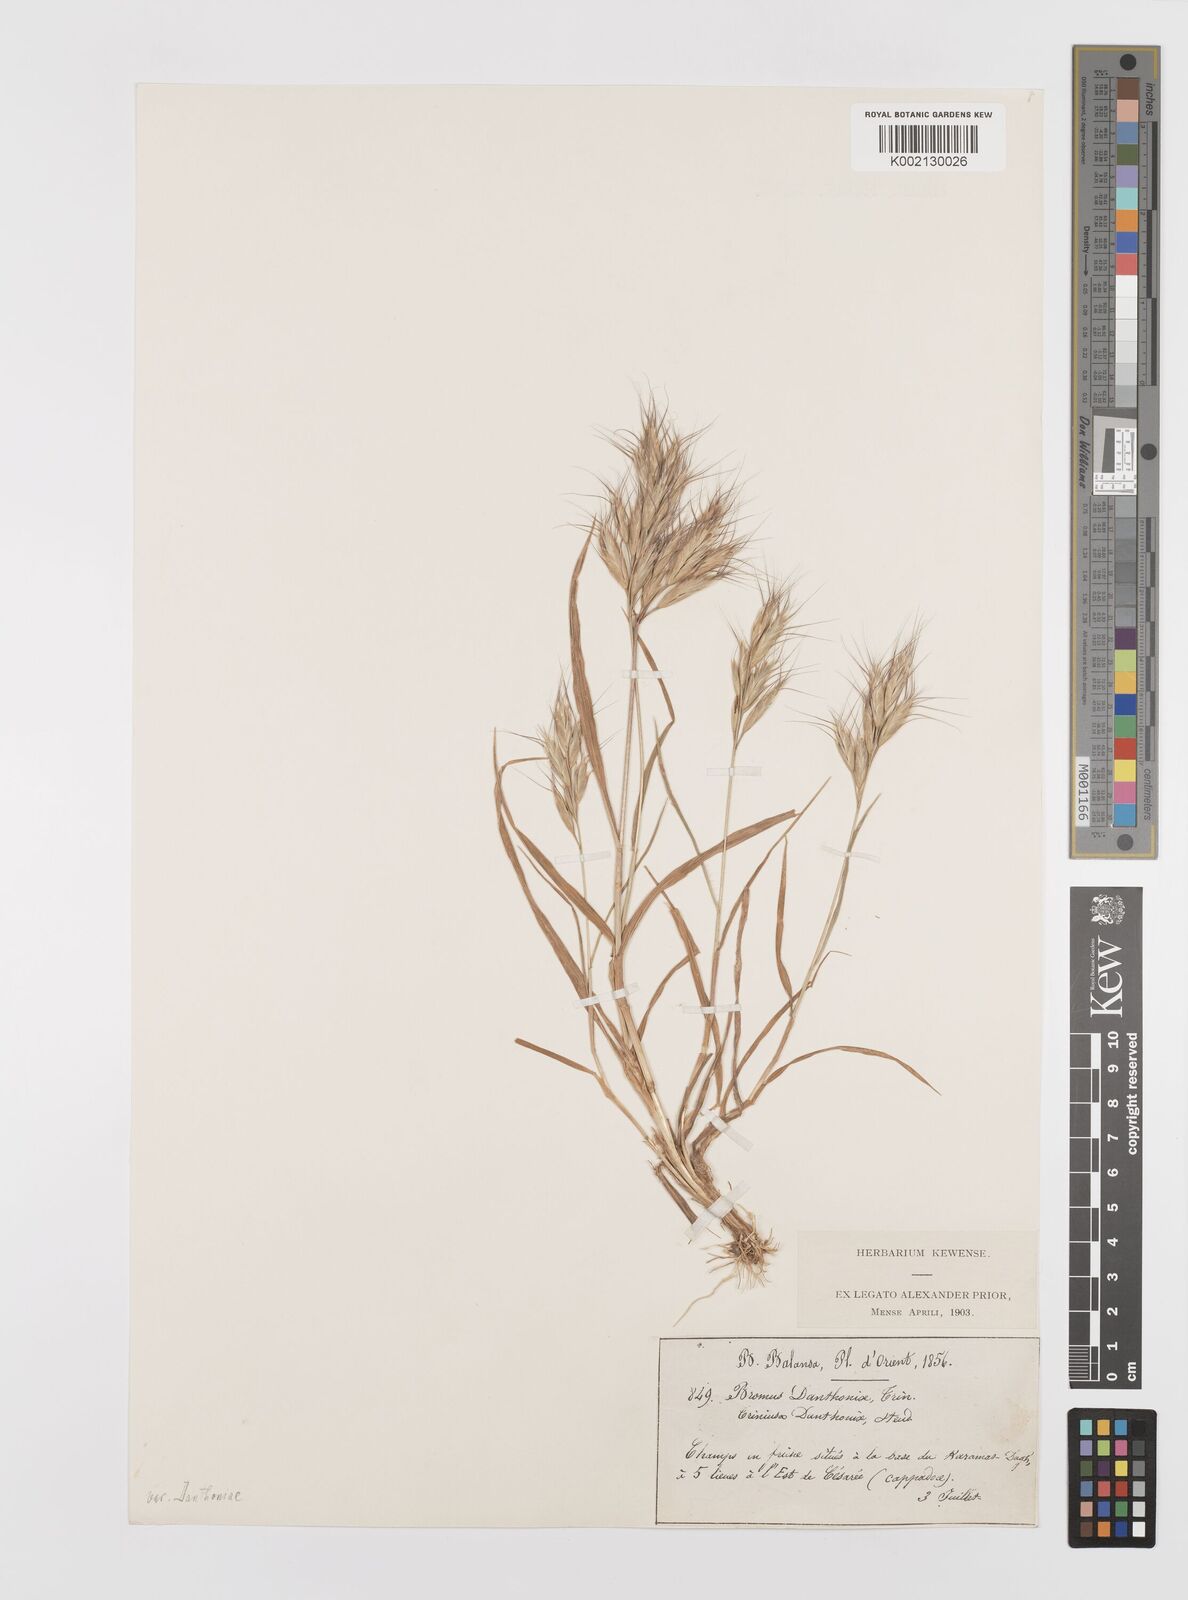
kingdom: Plantae
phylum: Tracheophyta
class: Liliopsida
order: Poales
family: Poaceae
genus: Bromus
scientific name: Bromus danthoniae
